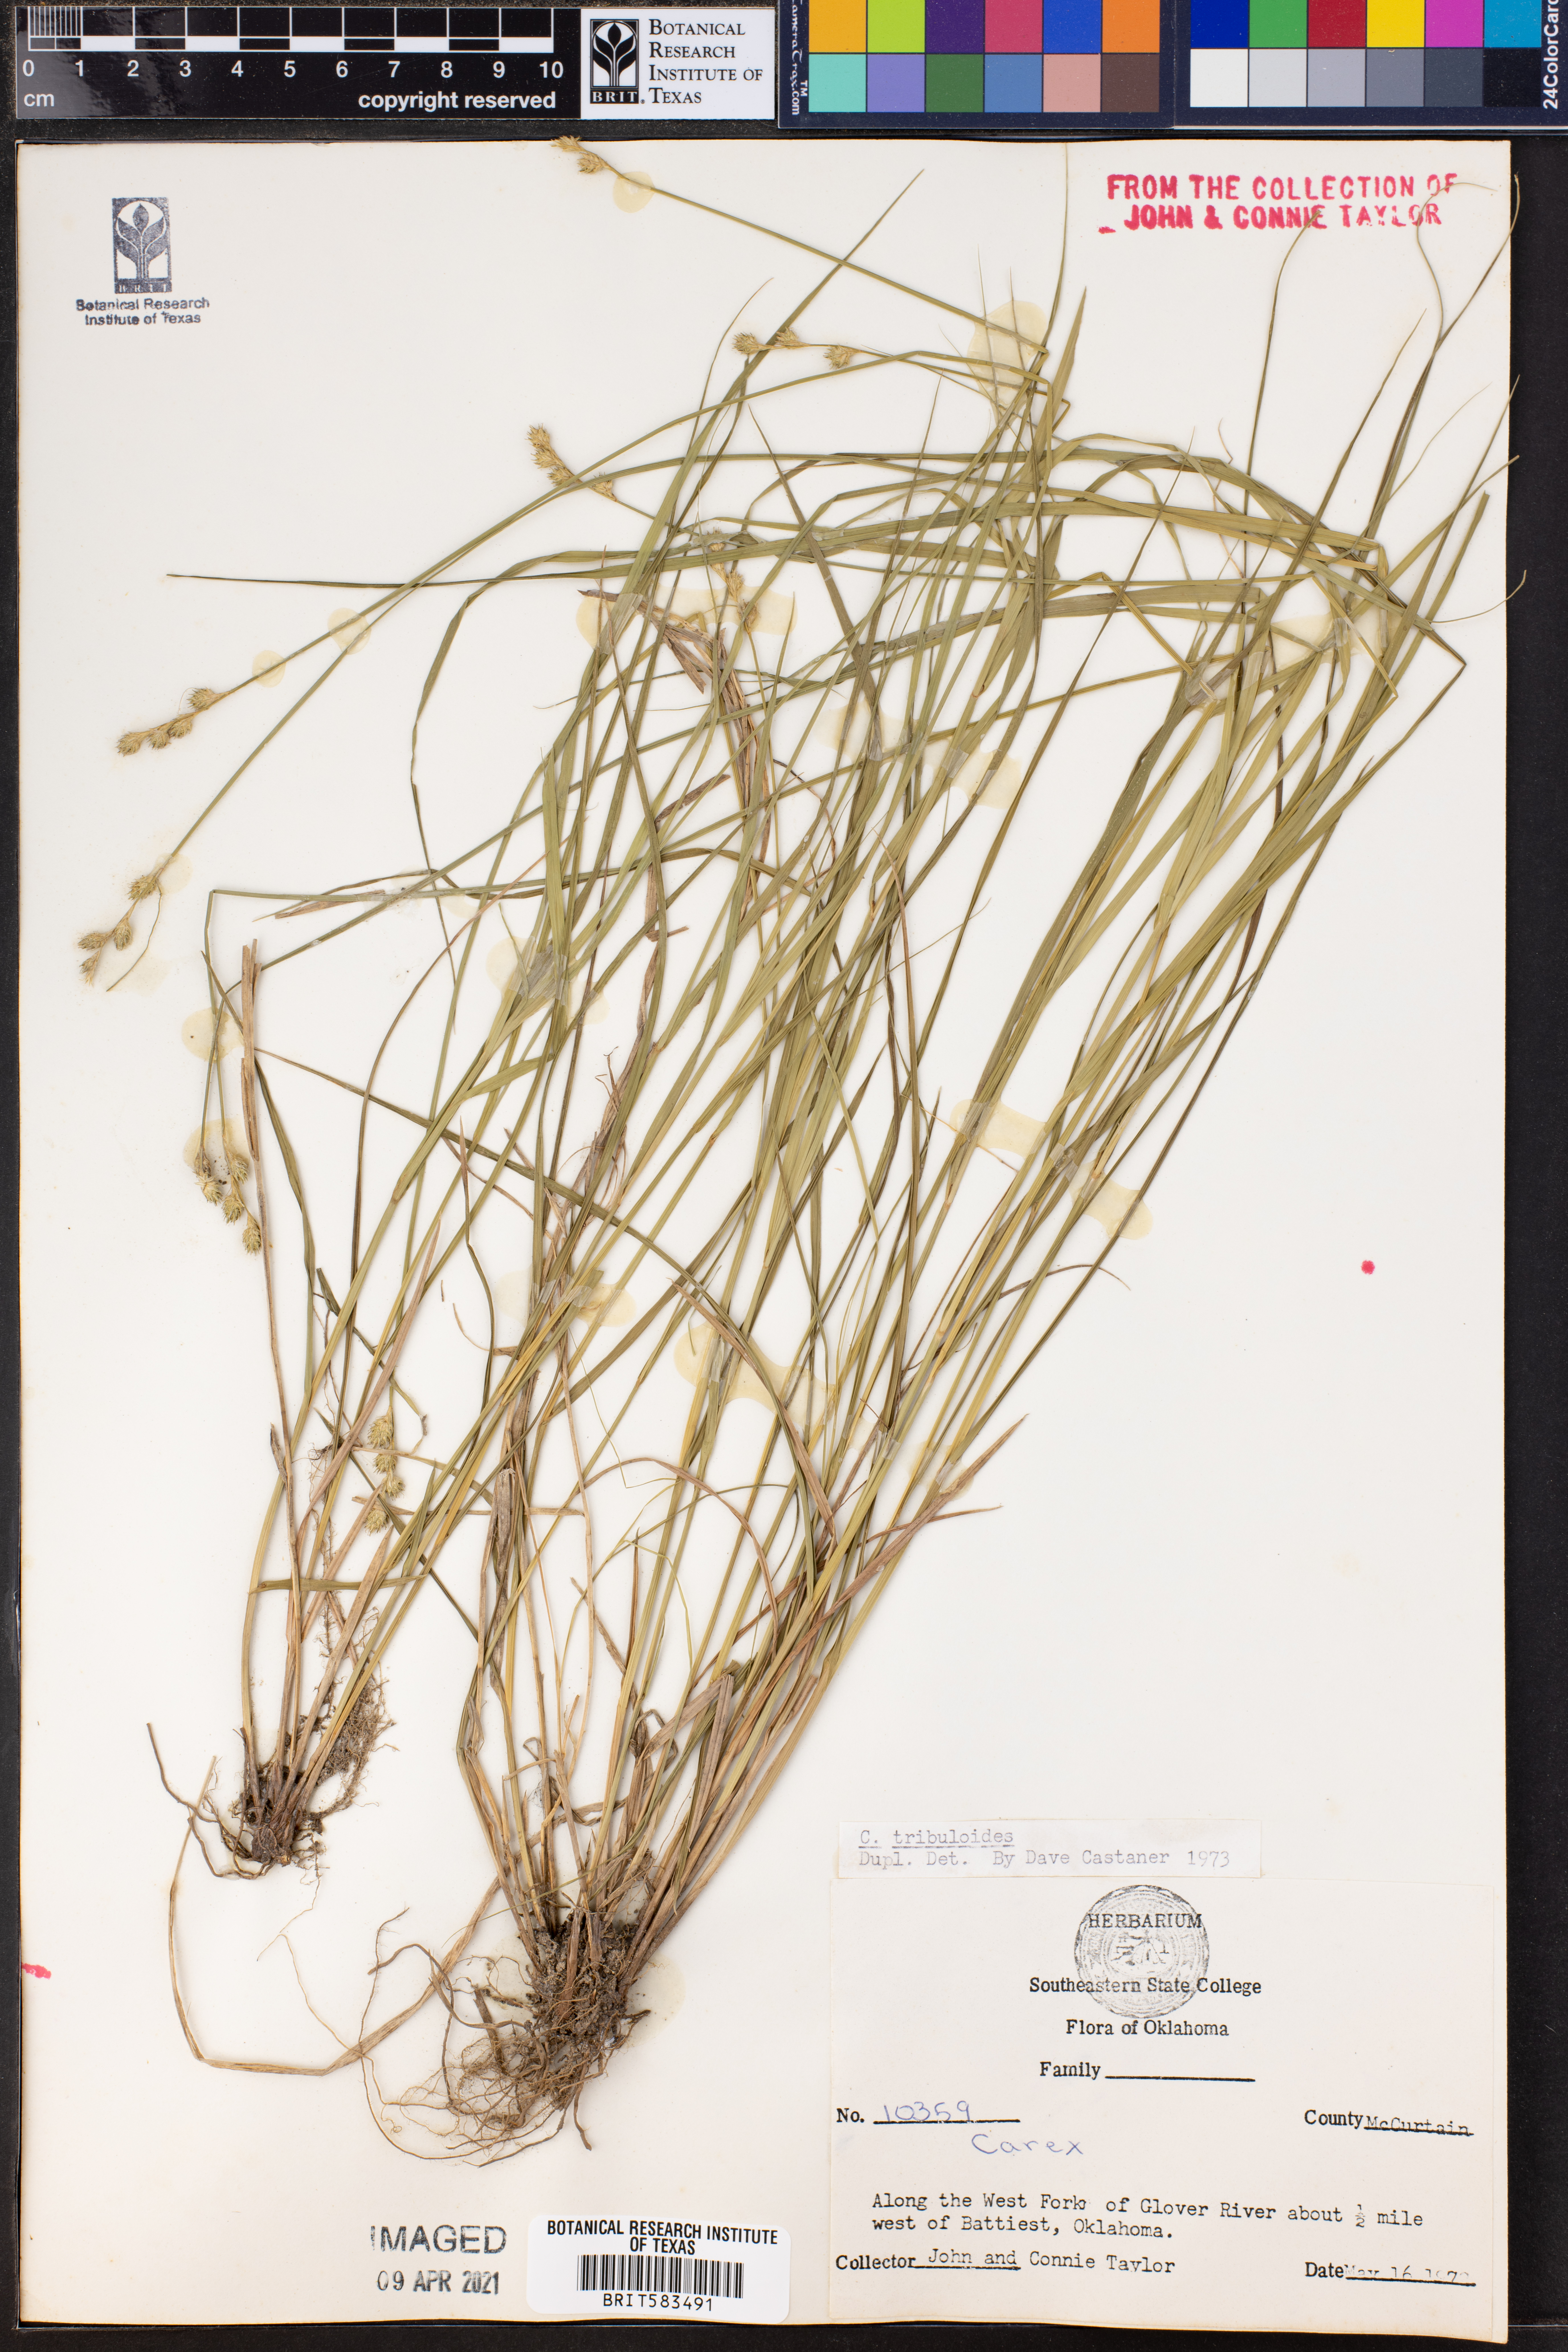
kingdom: Plantae
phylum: Tracheophyta
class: Liliopsida
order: Poales
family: Cyperaceae
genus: Carex
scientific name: Carex tribuloides
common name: Blunt broom sedge
